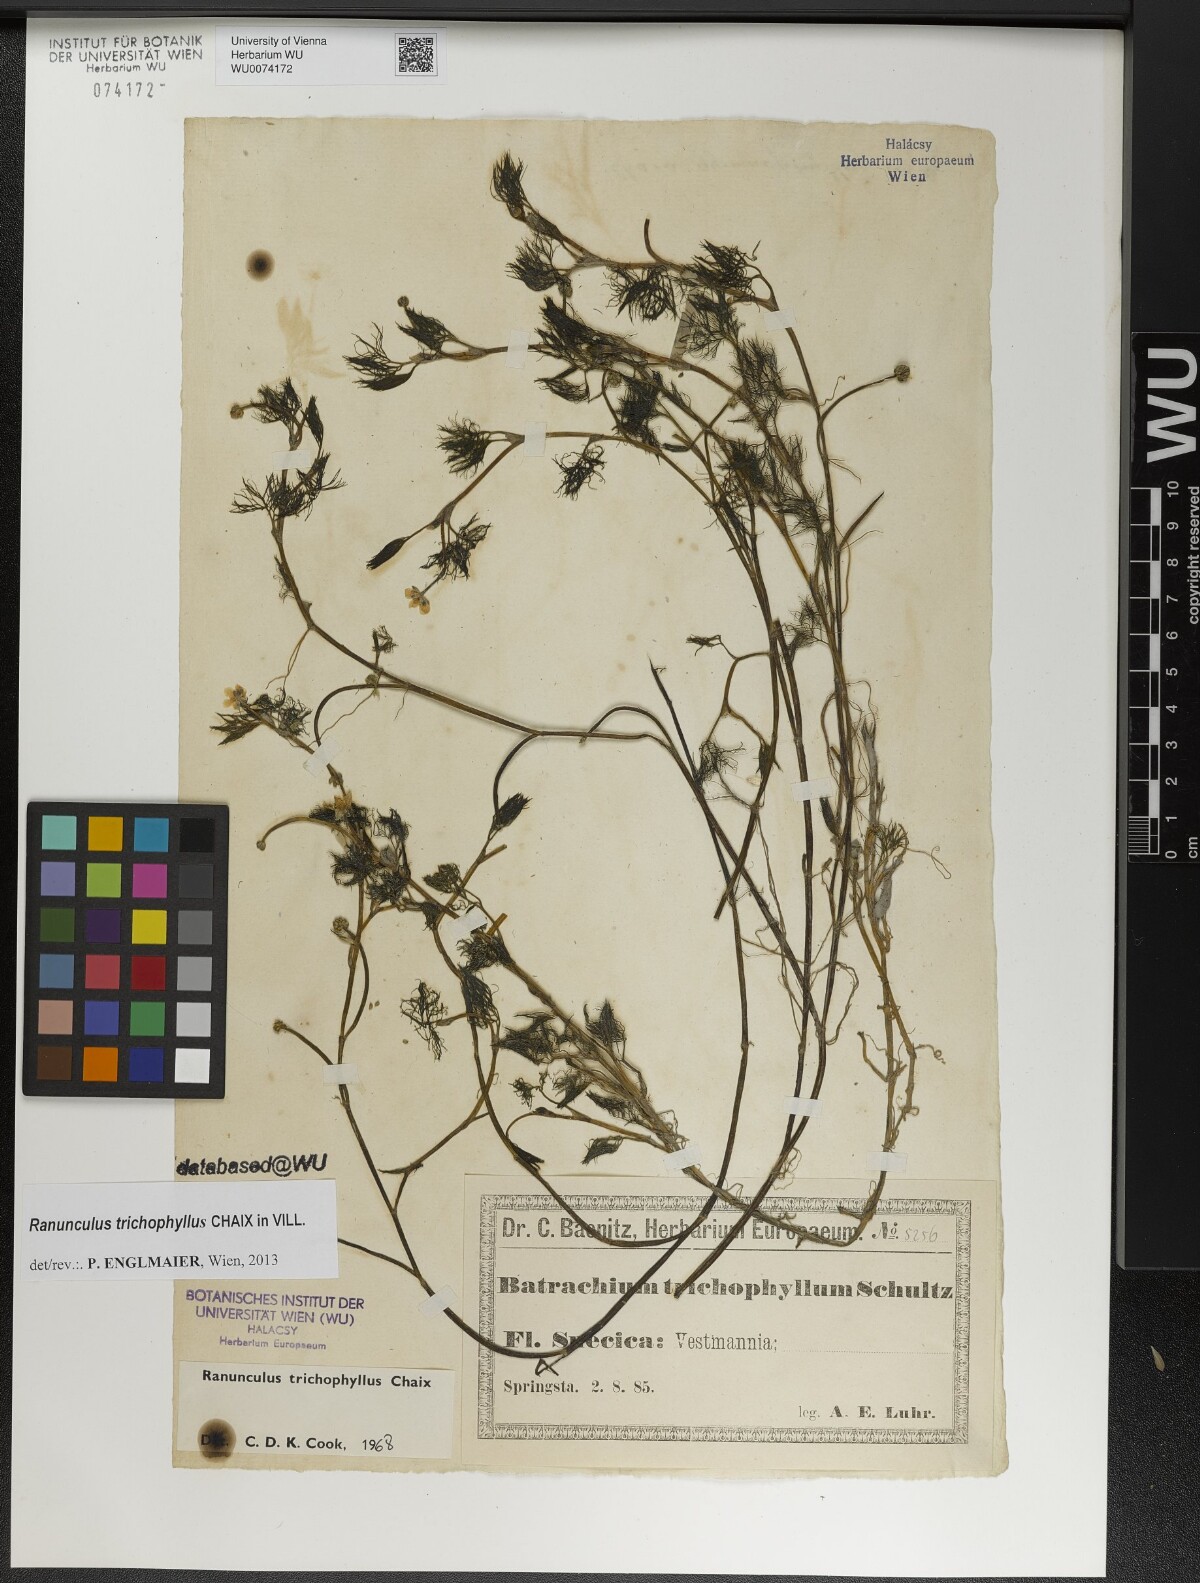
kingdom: Plantae
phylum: Tracheophyta
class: Magnoliopsida
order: Ranunculales
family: Ranunculaceae
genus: Ranunculus
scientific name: Ranunculus trichophyllus
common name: Thread-leaved water-crowfoot
